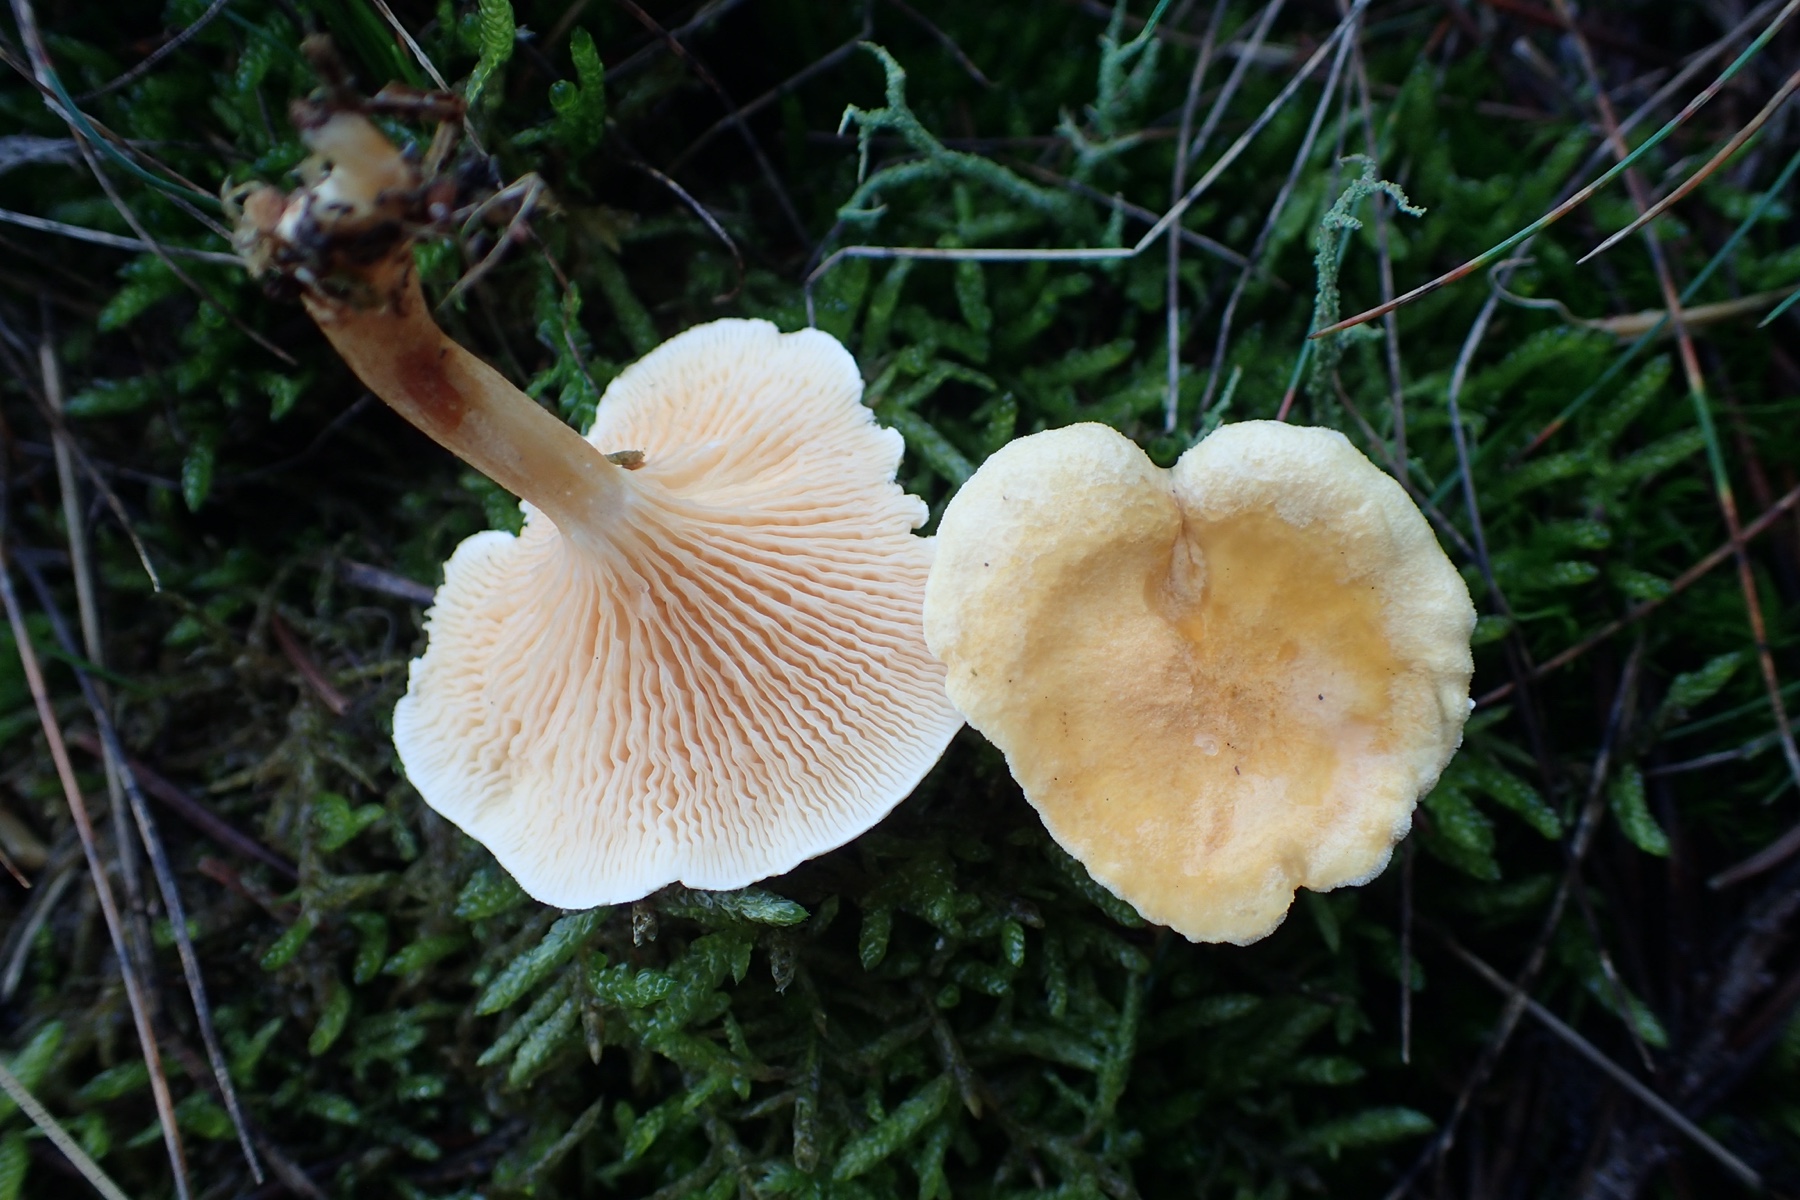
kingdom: Fungi
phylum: Basidiomycota
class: Agaricomycetes
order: Boletales
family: Hygrophoropsidaceae
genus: Hygrophoropsis
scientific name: Hygrophoropsis aurantiaca
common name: almindelig orangekantarel
